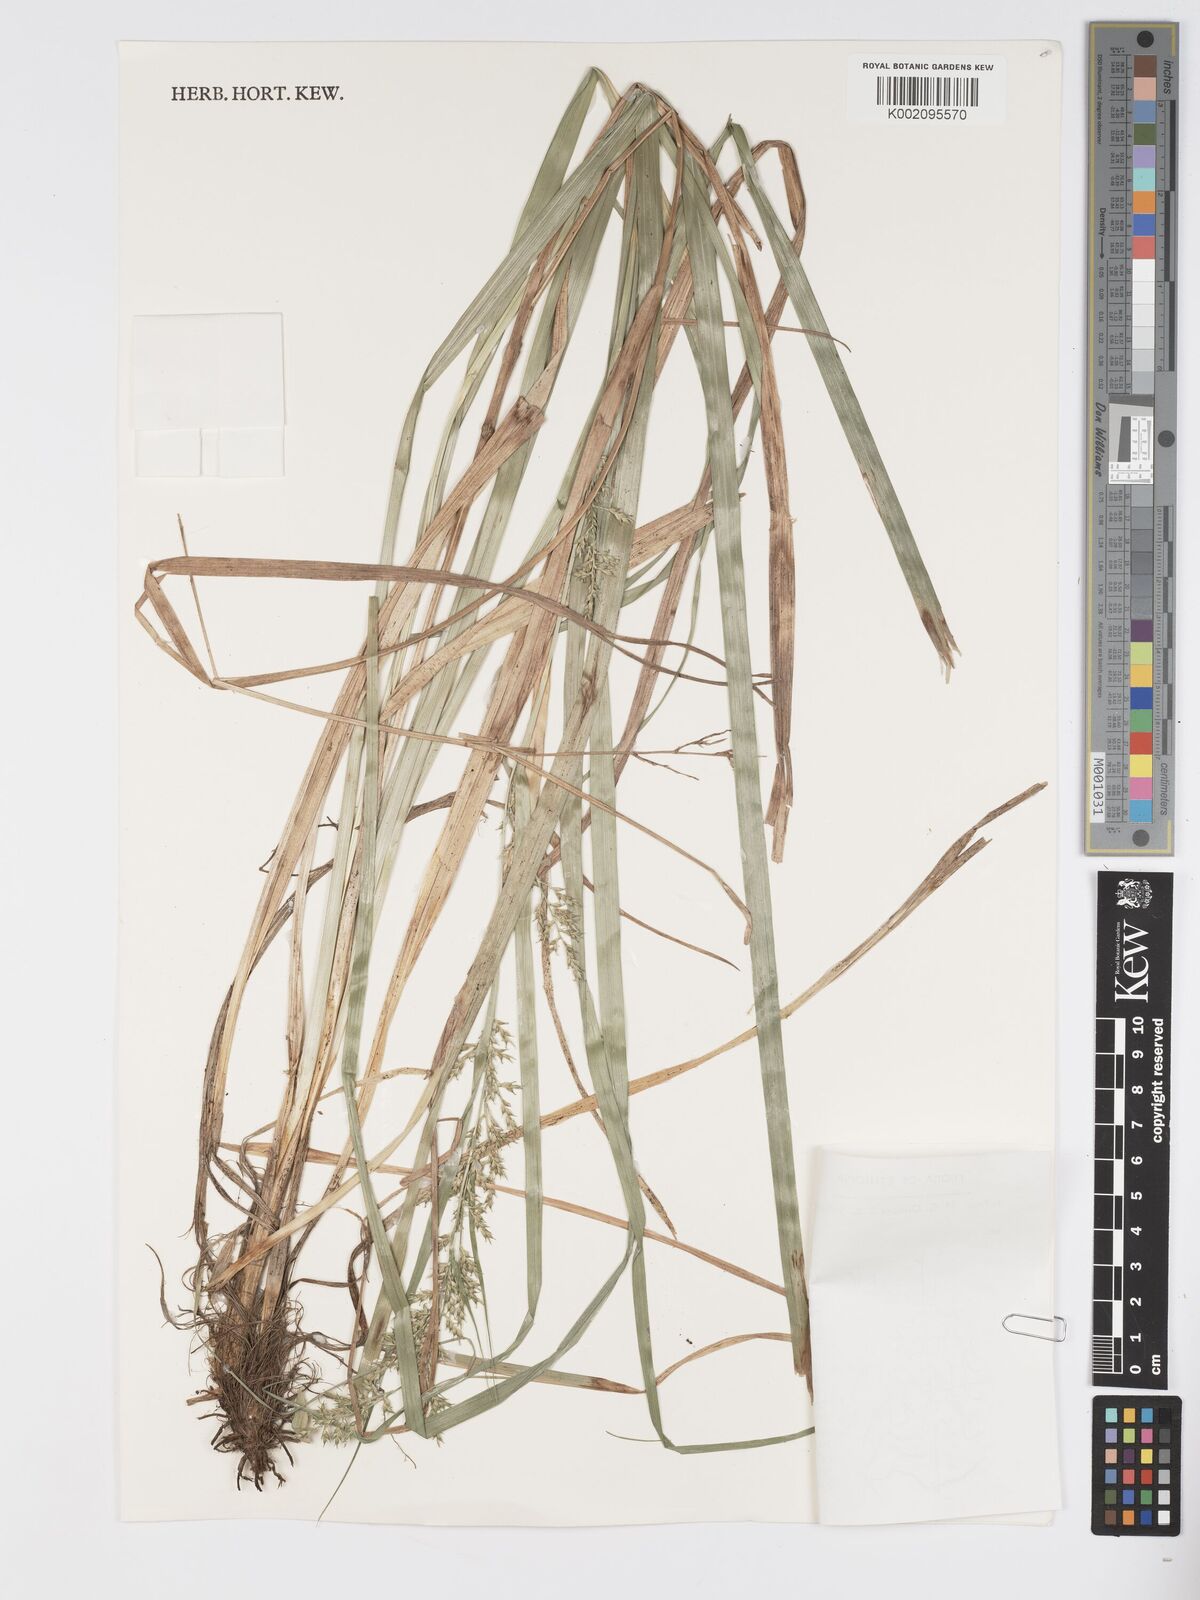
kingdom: Plantae
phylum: Tracheophyta
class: Liliopsida
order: Poales
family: Cyperaceae
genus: Carex
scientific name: Carex chlorosaccus
